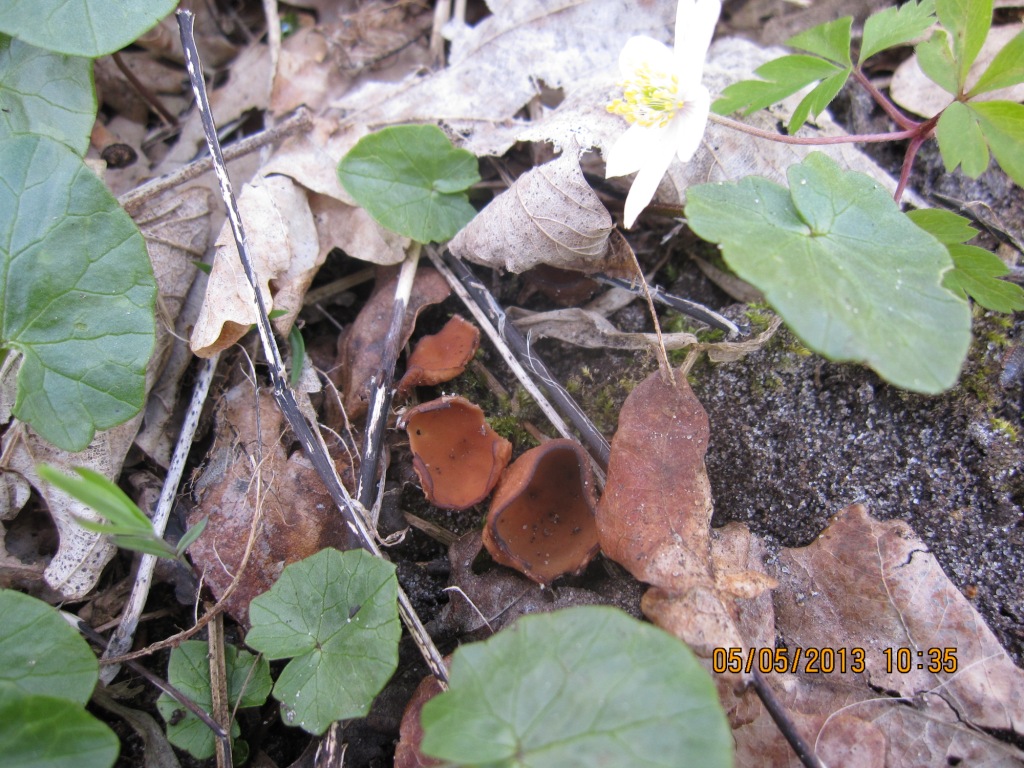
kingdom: Fungi
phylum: Ascomycota
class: Leotiomycetes
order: Helotiales
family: Sclerotiniaceae
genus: Dumontinia
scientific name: Dumontinia tuberosa
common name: anemone-knoldskive
